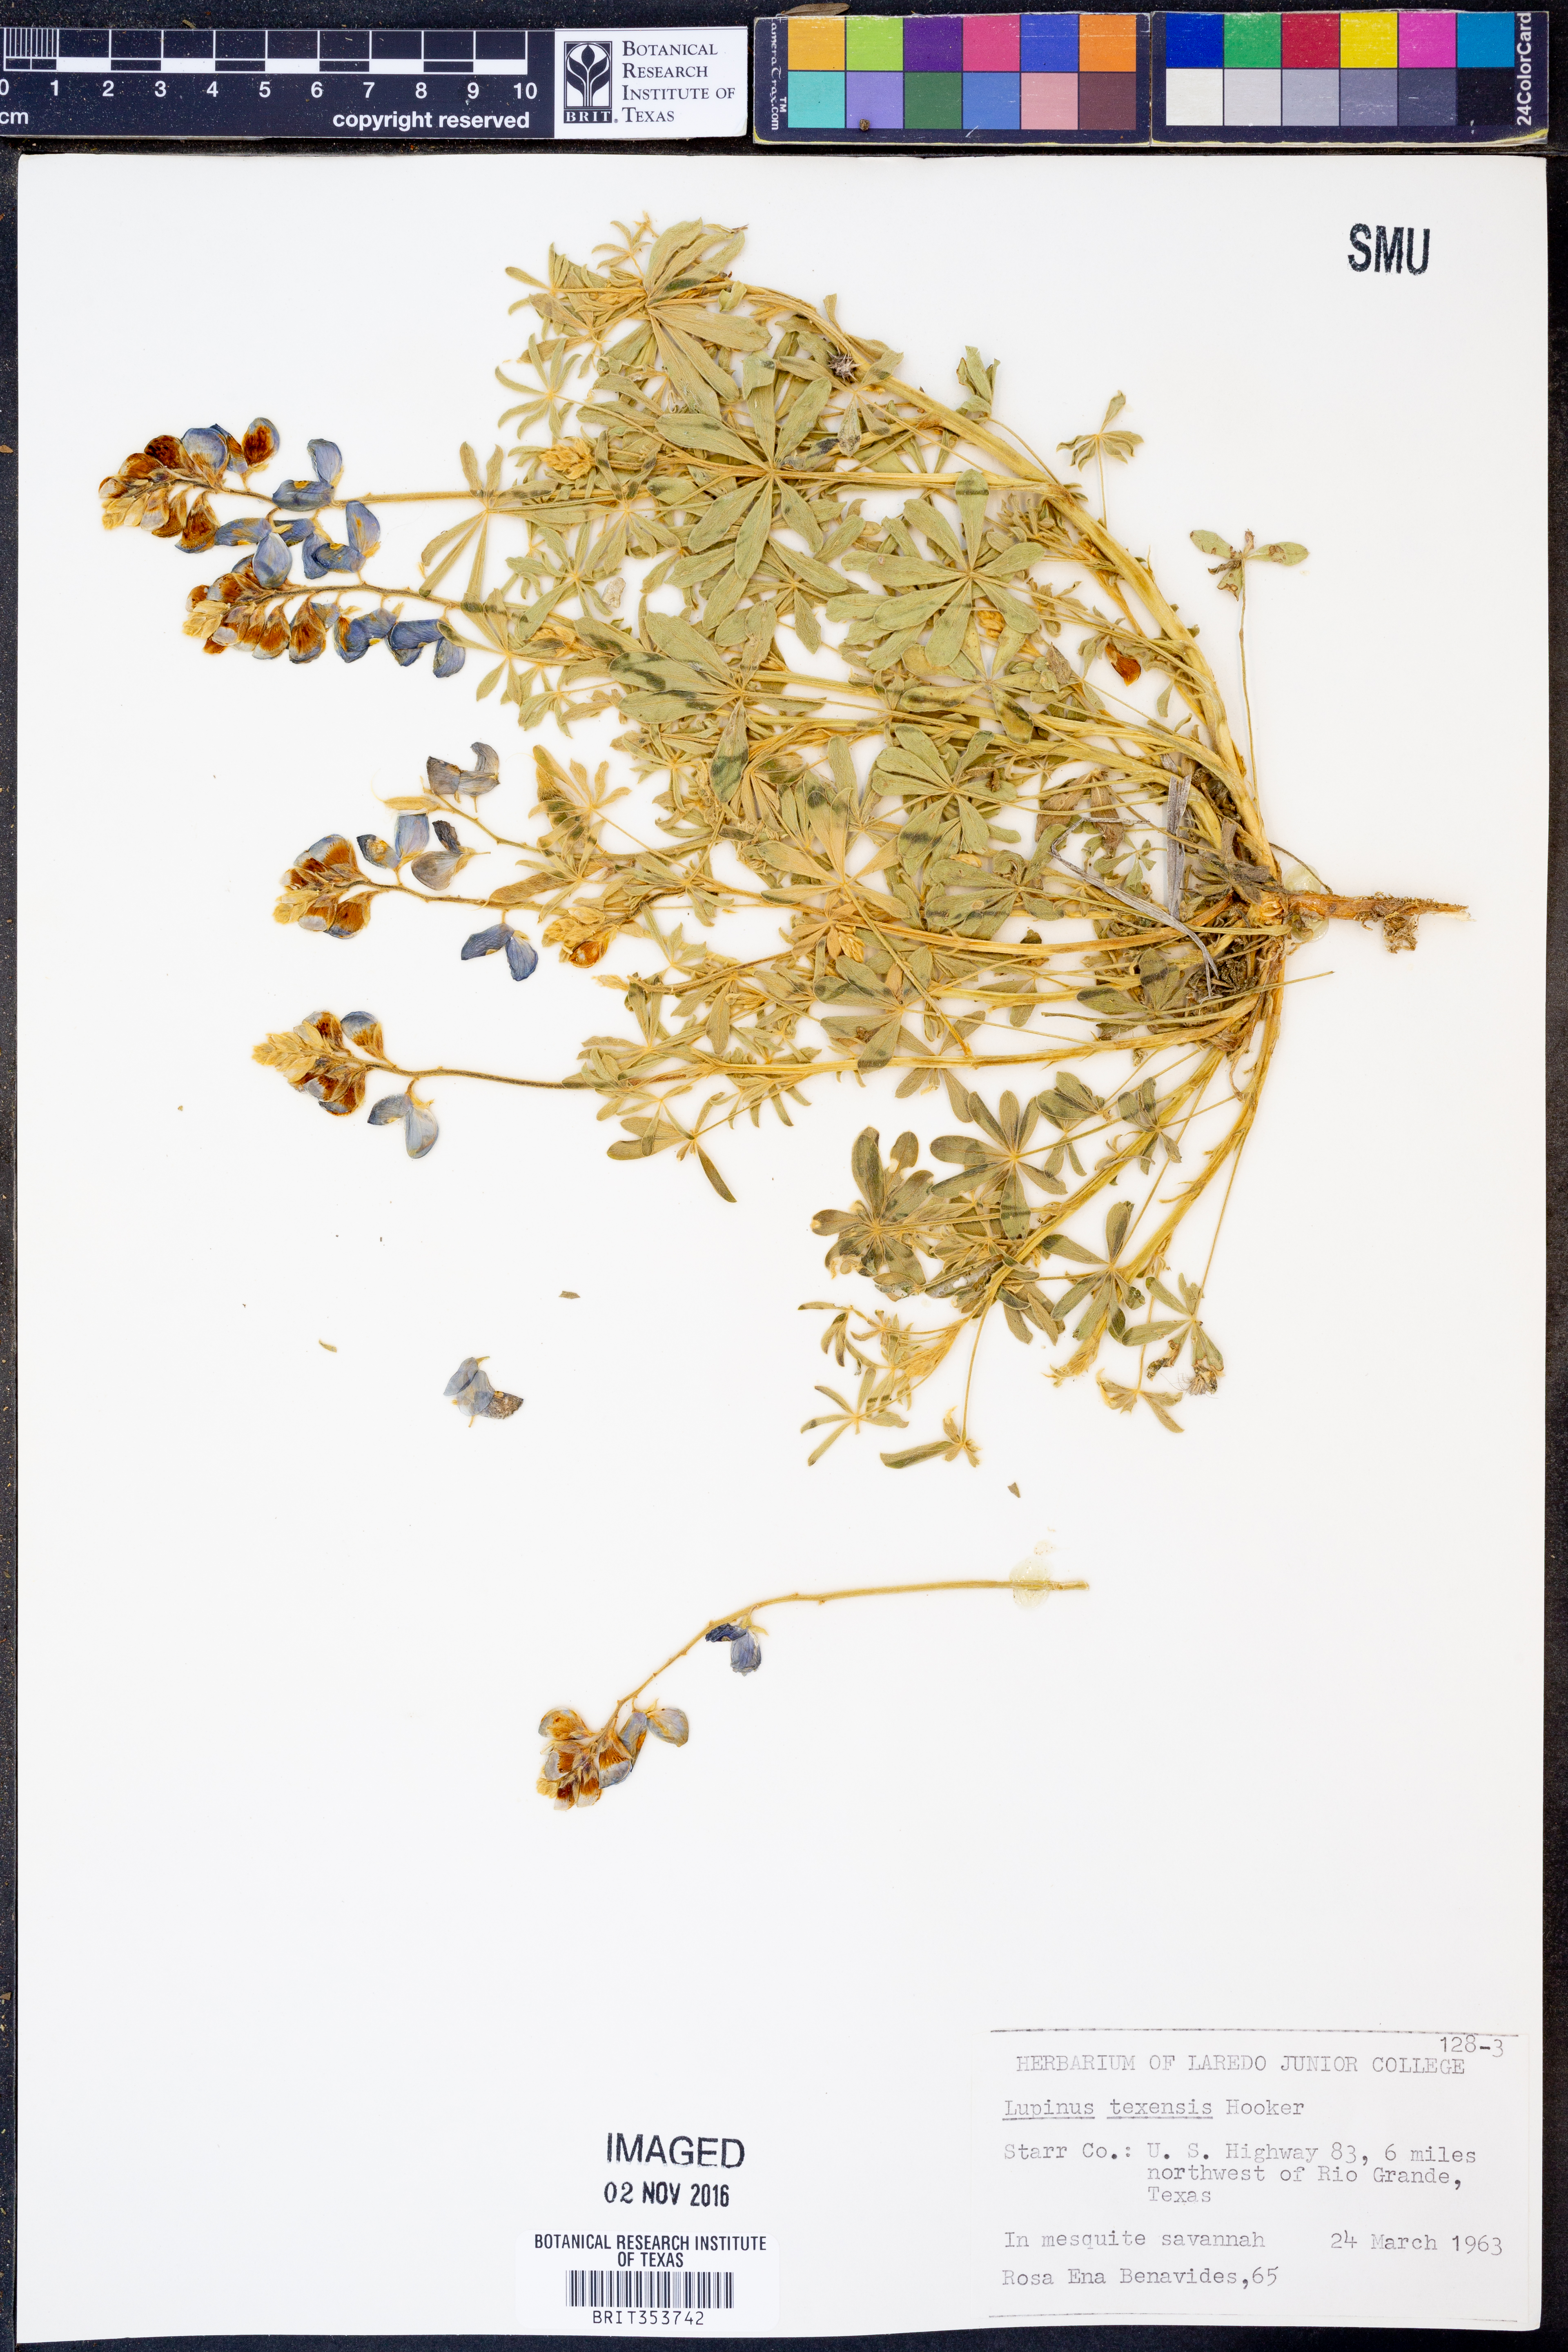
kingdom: Plantae
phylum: Tracheophyta
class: Magnoliopsida
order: Fabales
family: Fabaceae
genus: Lupinus
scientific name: Lupinus texensis
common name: Texas bluebonnet
